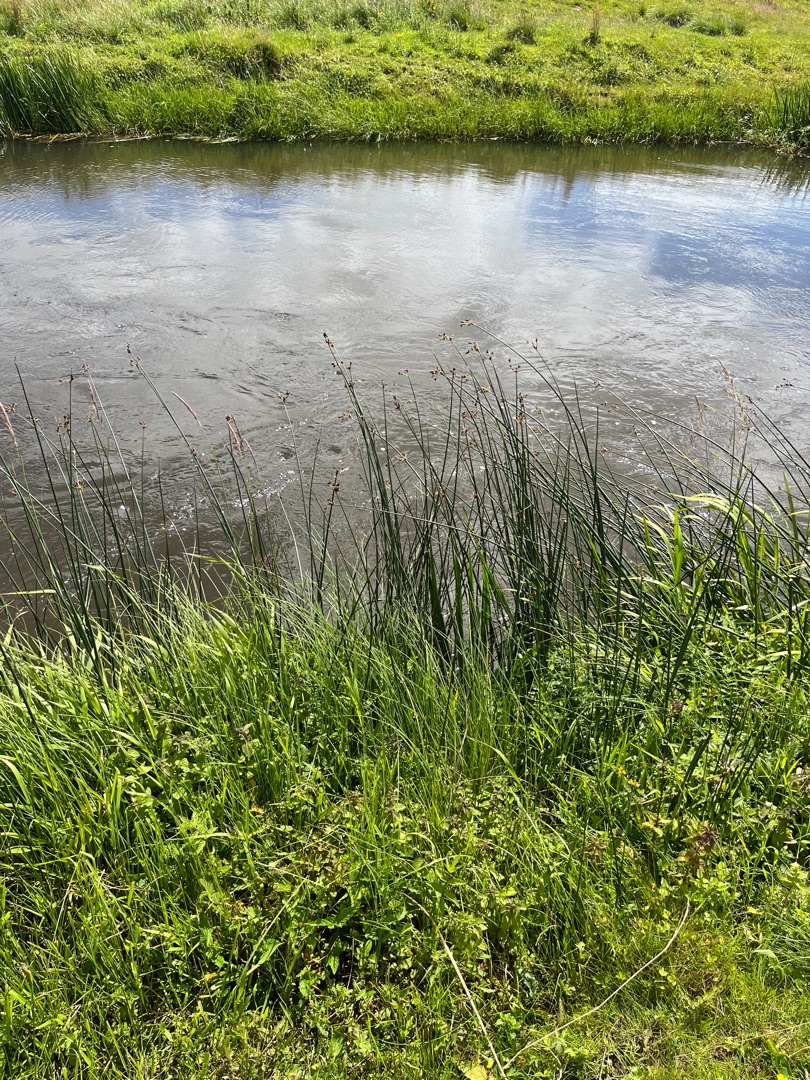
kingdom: Plantae
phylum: Tracheophyta
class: Liliopsida
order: Poales
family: Cyperaceae
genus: Schoenoplectus
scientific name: Schoenoplectus lacustris
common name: Sø-kogleaks
